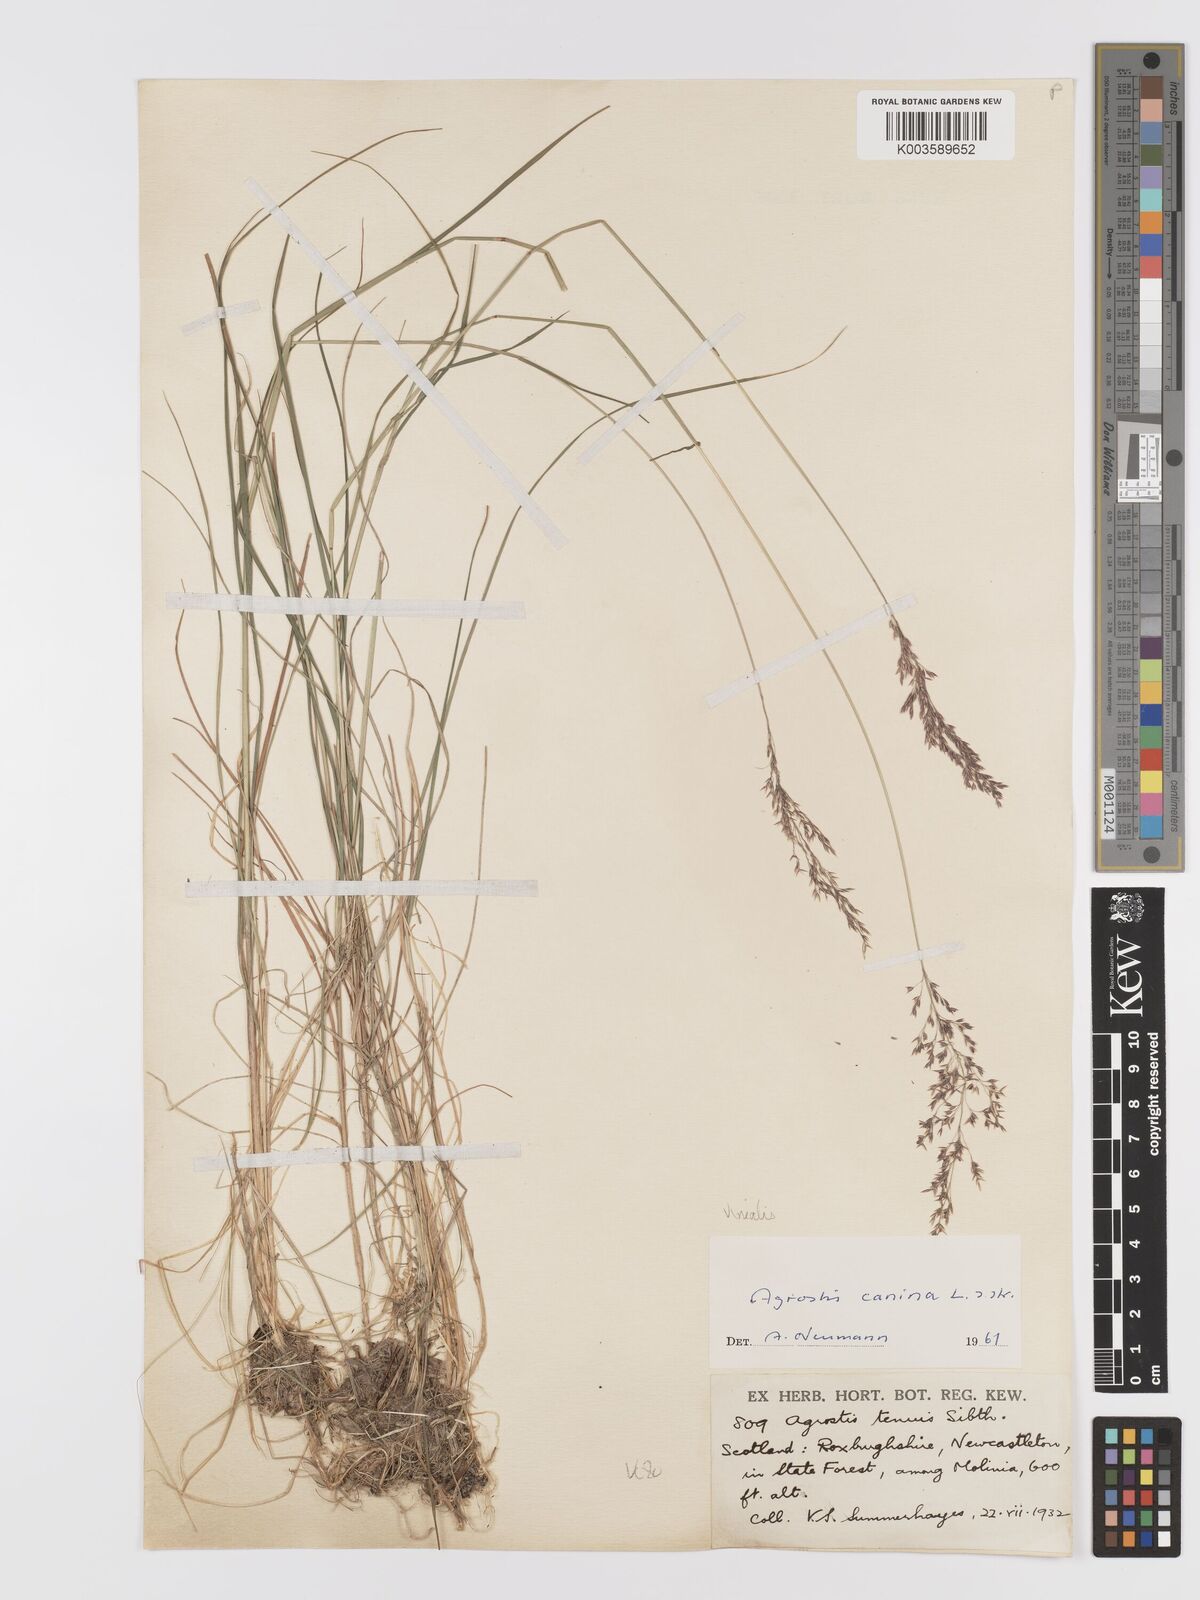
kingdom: Plantae
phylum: Tracheophyta
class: Liliopsida
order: Poales
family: Poaceae
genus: Agrostis
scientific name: Agrostis
